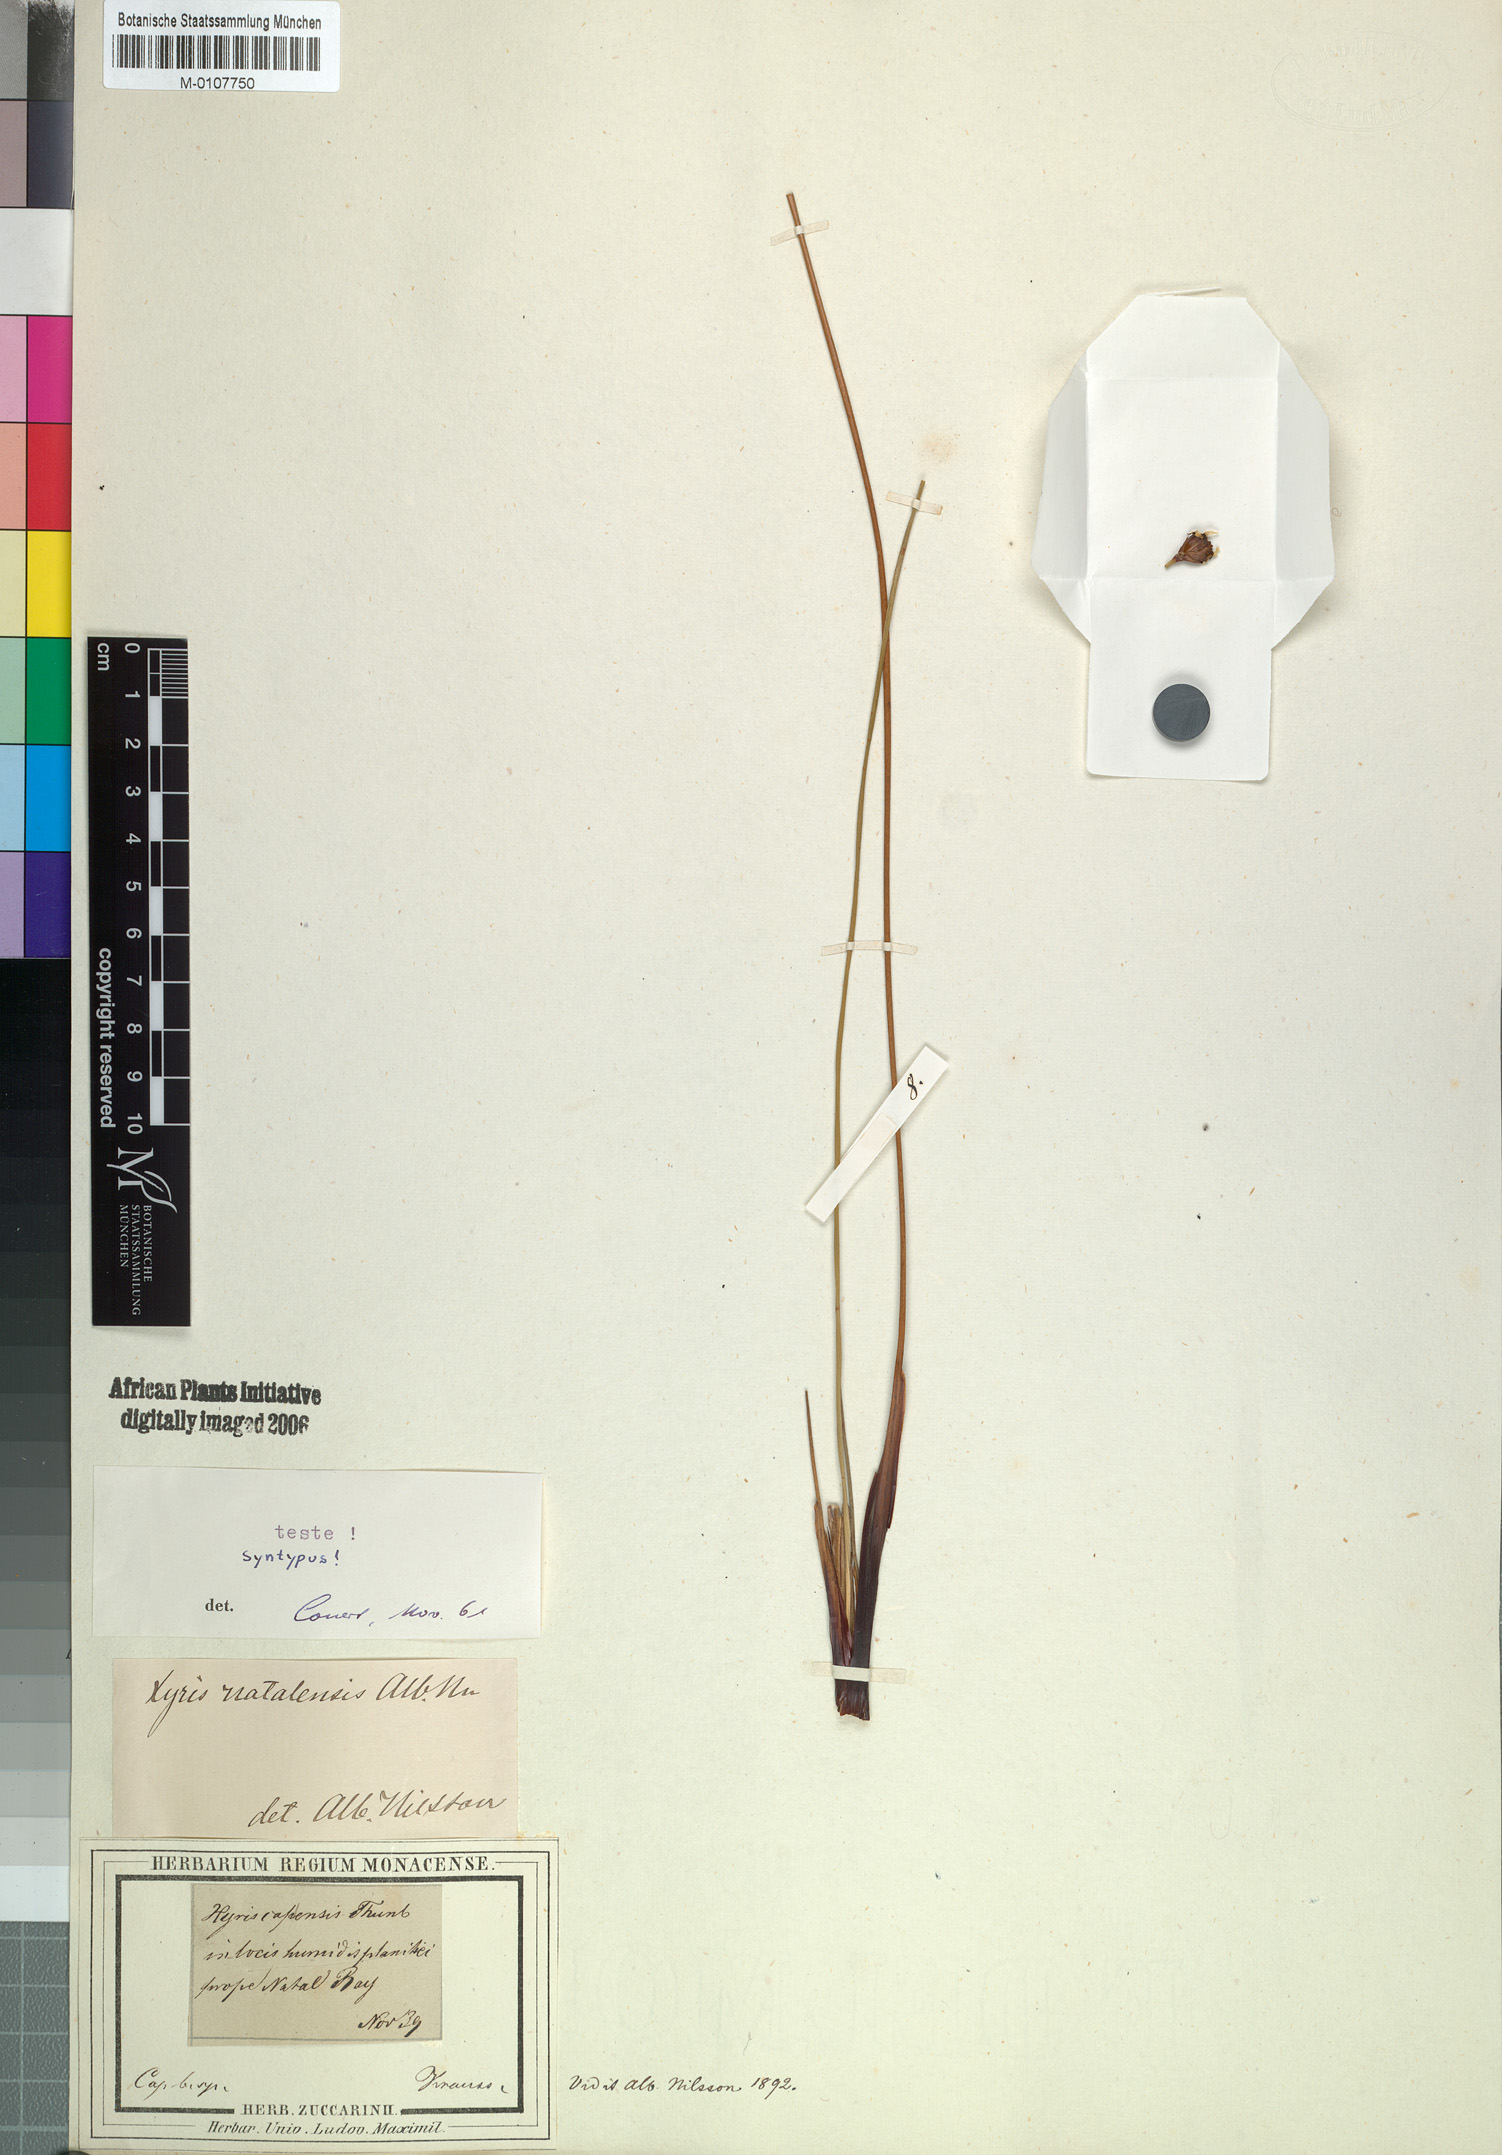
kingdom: Plantae
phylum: Tracheophyta
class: Liliopsida
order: Poales
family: Xyridaceae
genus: Xyris
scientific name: Xyris natalensis
